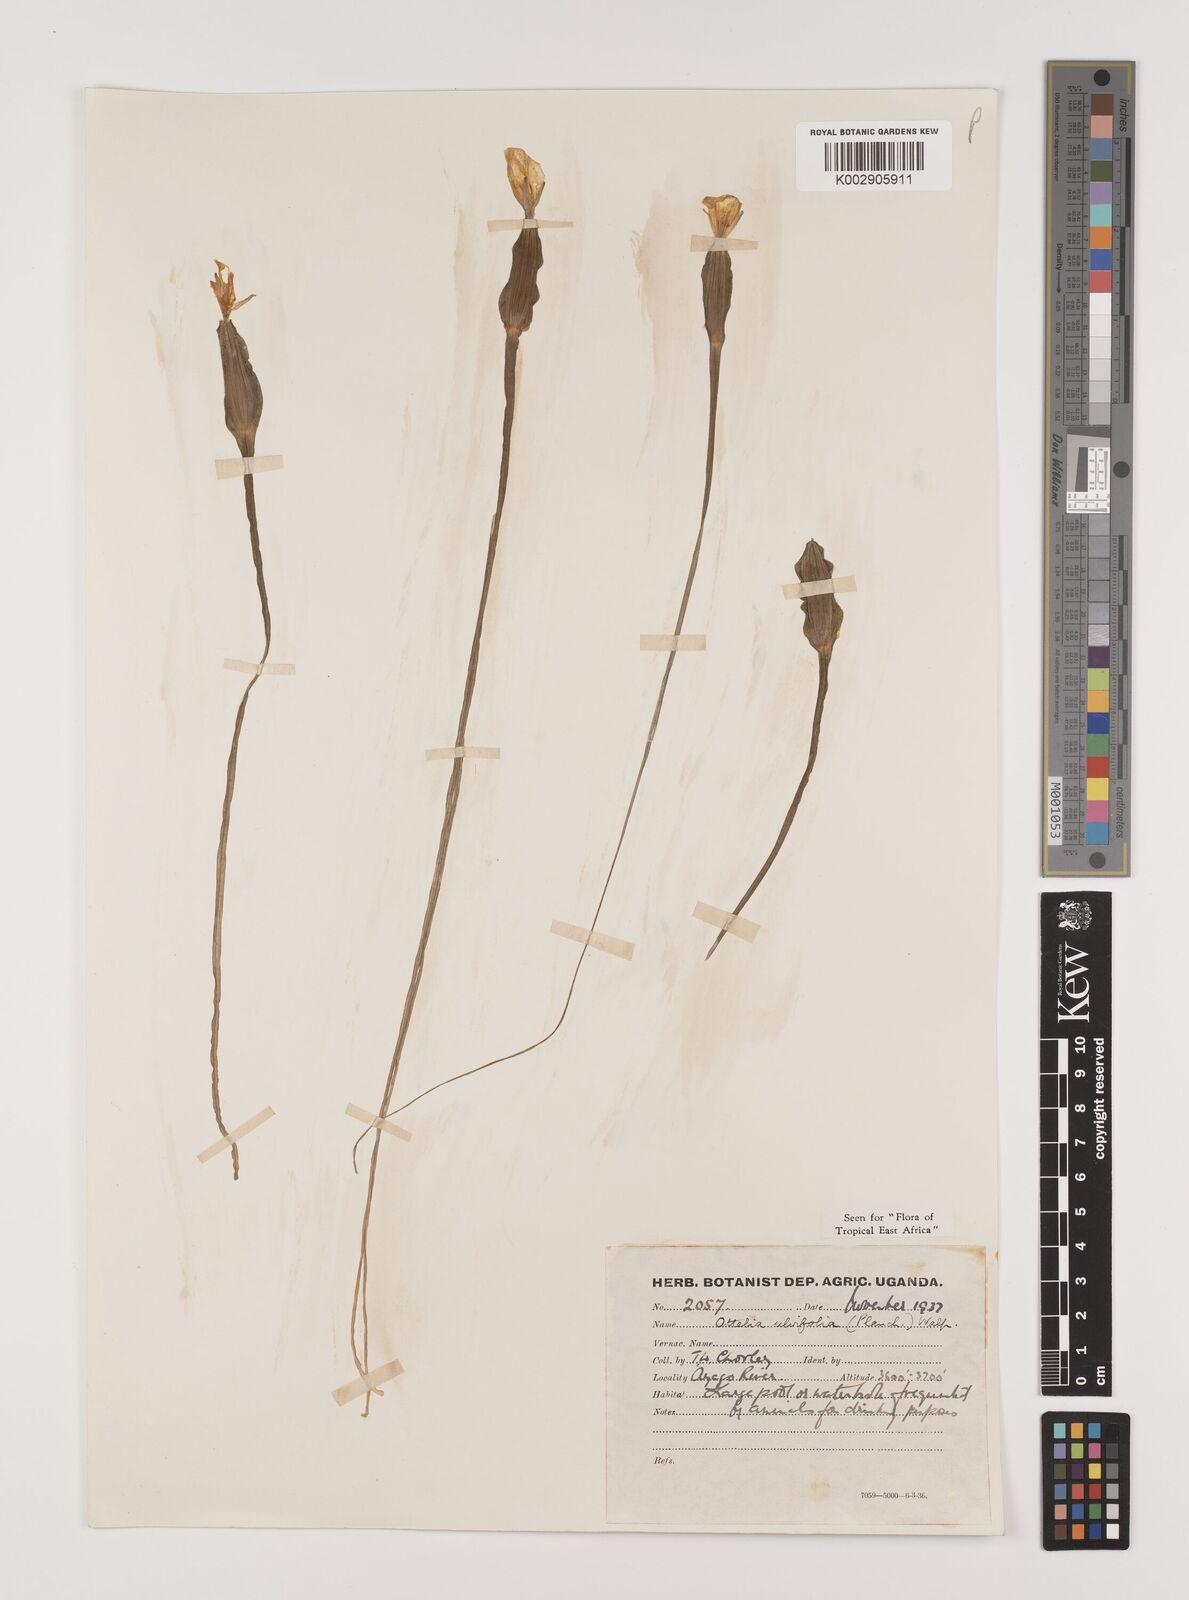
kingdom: Plantae
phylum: Tracheophyta
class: Liliopsida
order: Alismatales
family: Hydrocharitaceae
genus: Ottelia
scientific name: Ottelia ulvifolia
